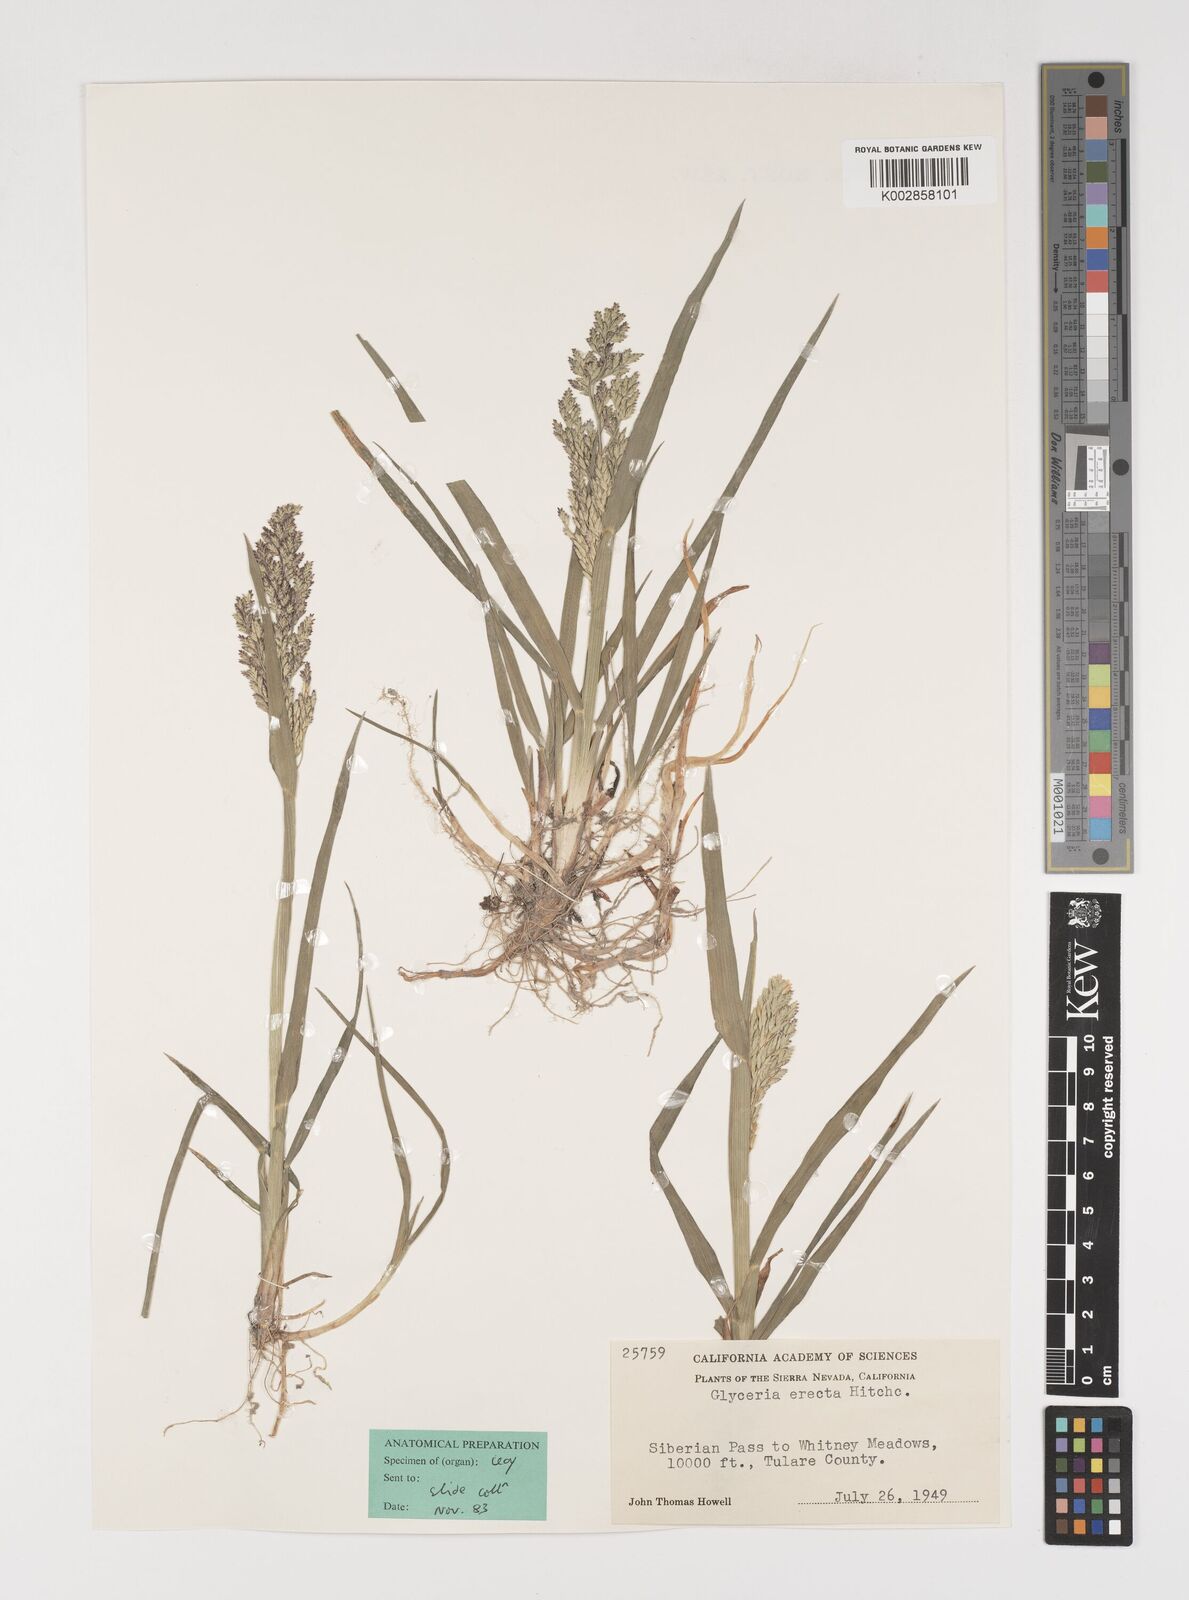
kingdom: Plantae
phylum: Tracheophyta
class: Liliopsida
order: Poales
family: Poaceae
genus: Torreyochloa
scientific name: Torreyochloa erecta
